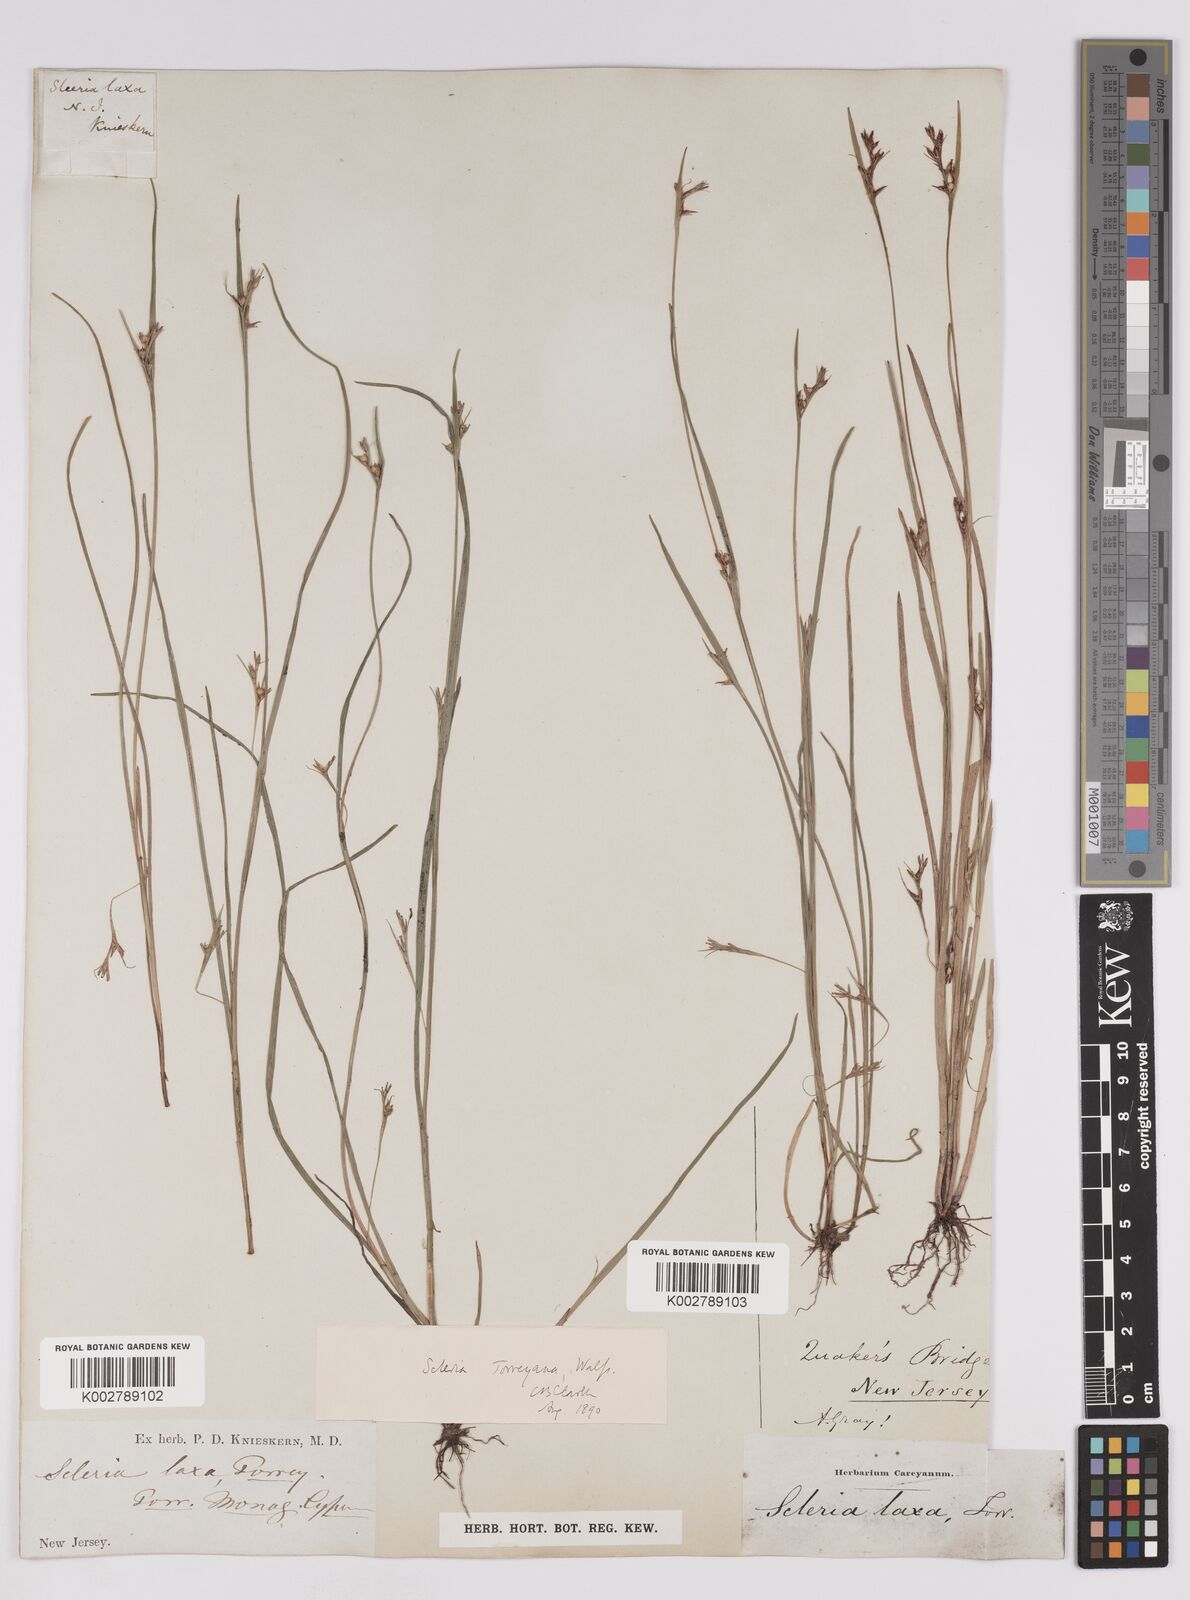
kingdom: Plantae
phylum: Tracheophyta
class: Liliopsida
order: Poales
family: Cyperaceae
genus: Scleria
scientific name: Scleria muehlenbergii
